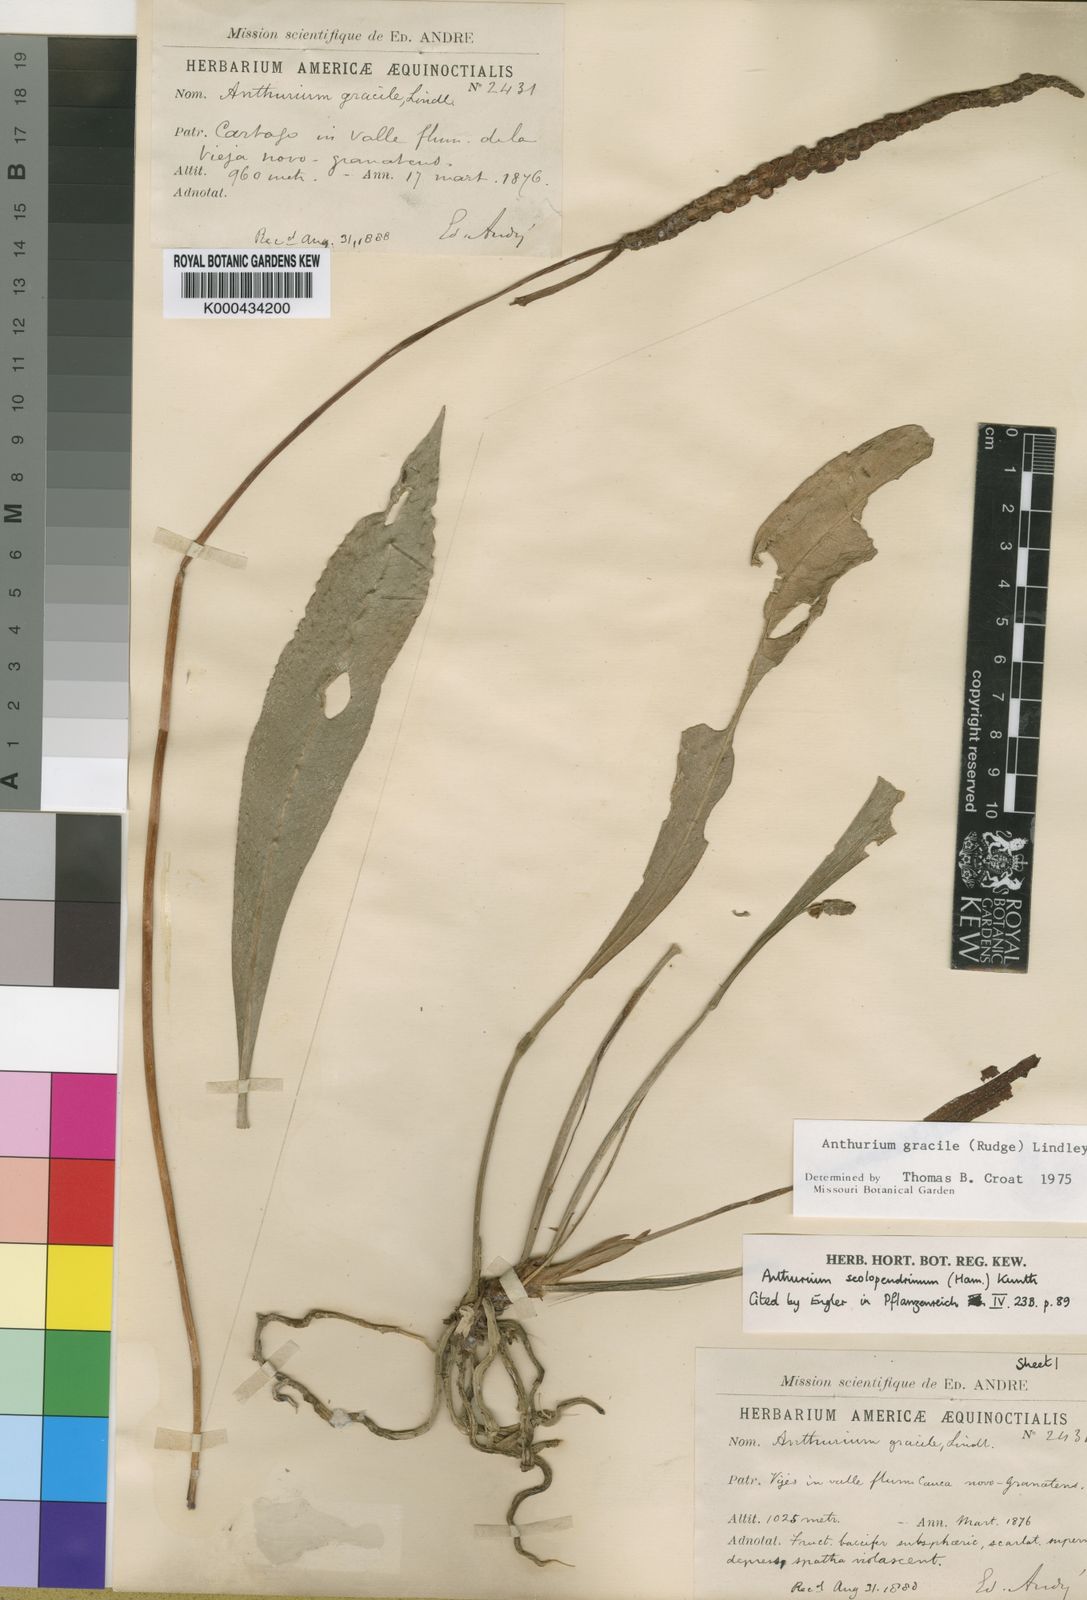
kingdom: Plantae
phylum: Tracheophyta
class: Liliopsida
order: Alismatales
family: Araceae
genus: Anthurium
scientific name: Anthurium gracile
